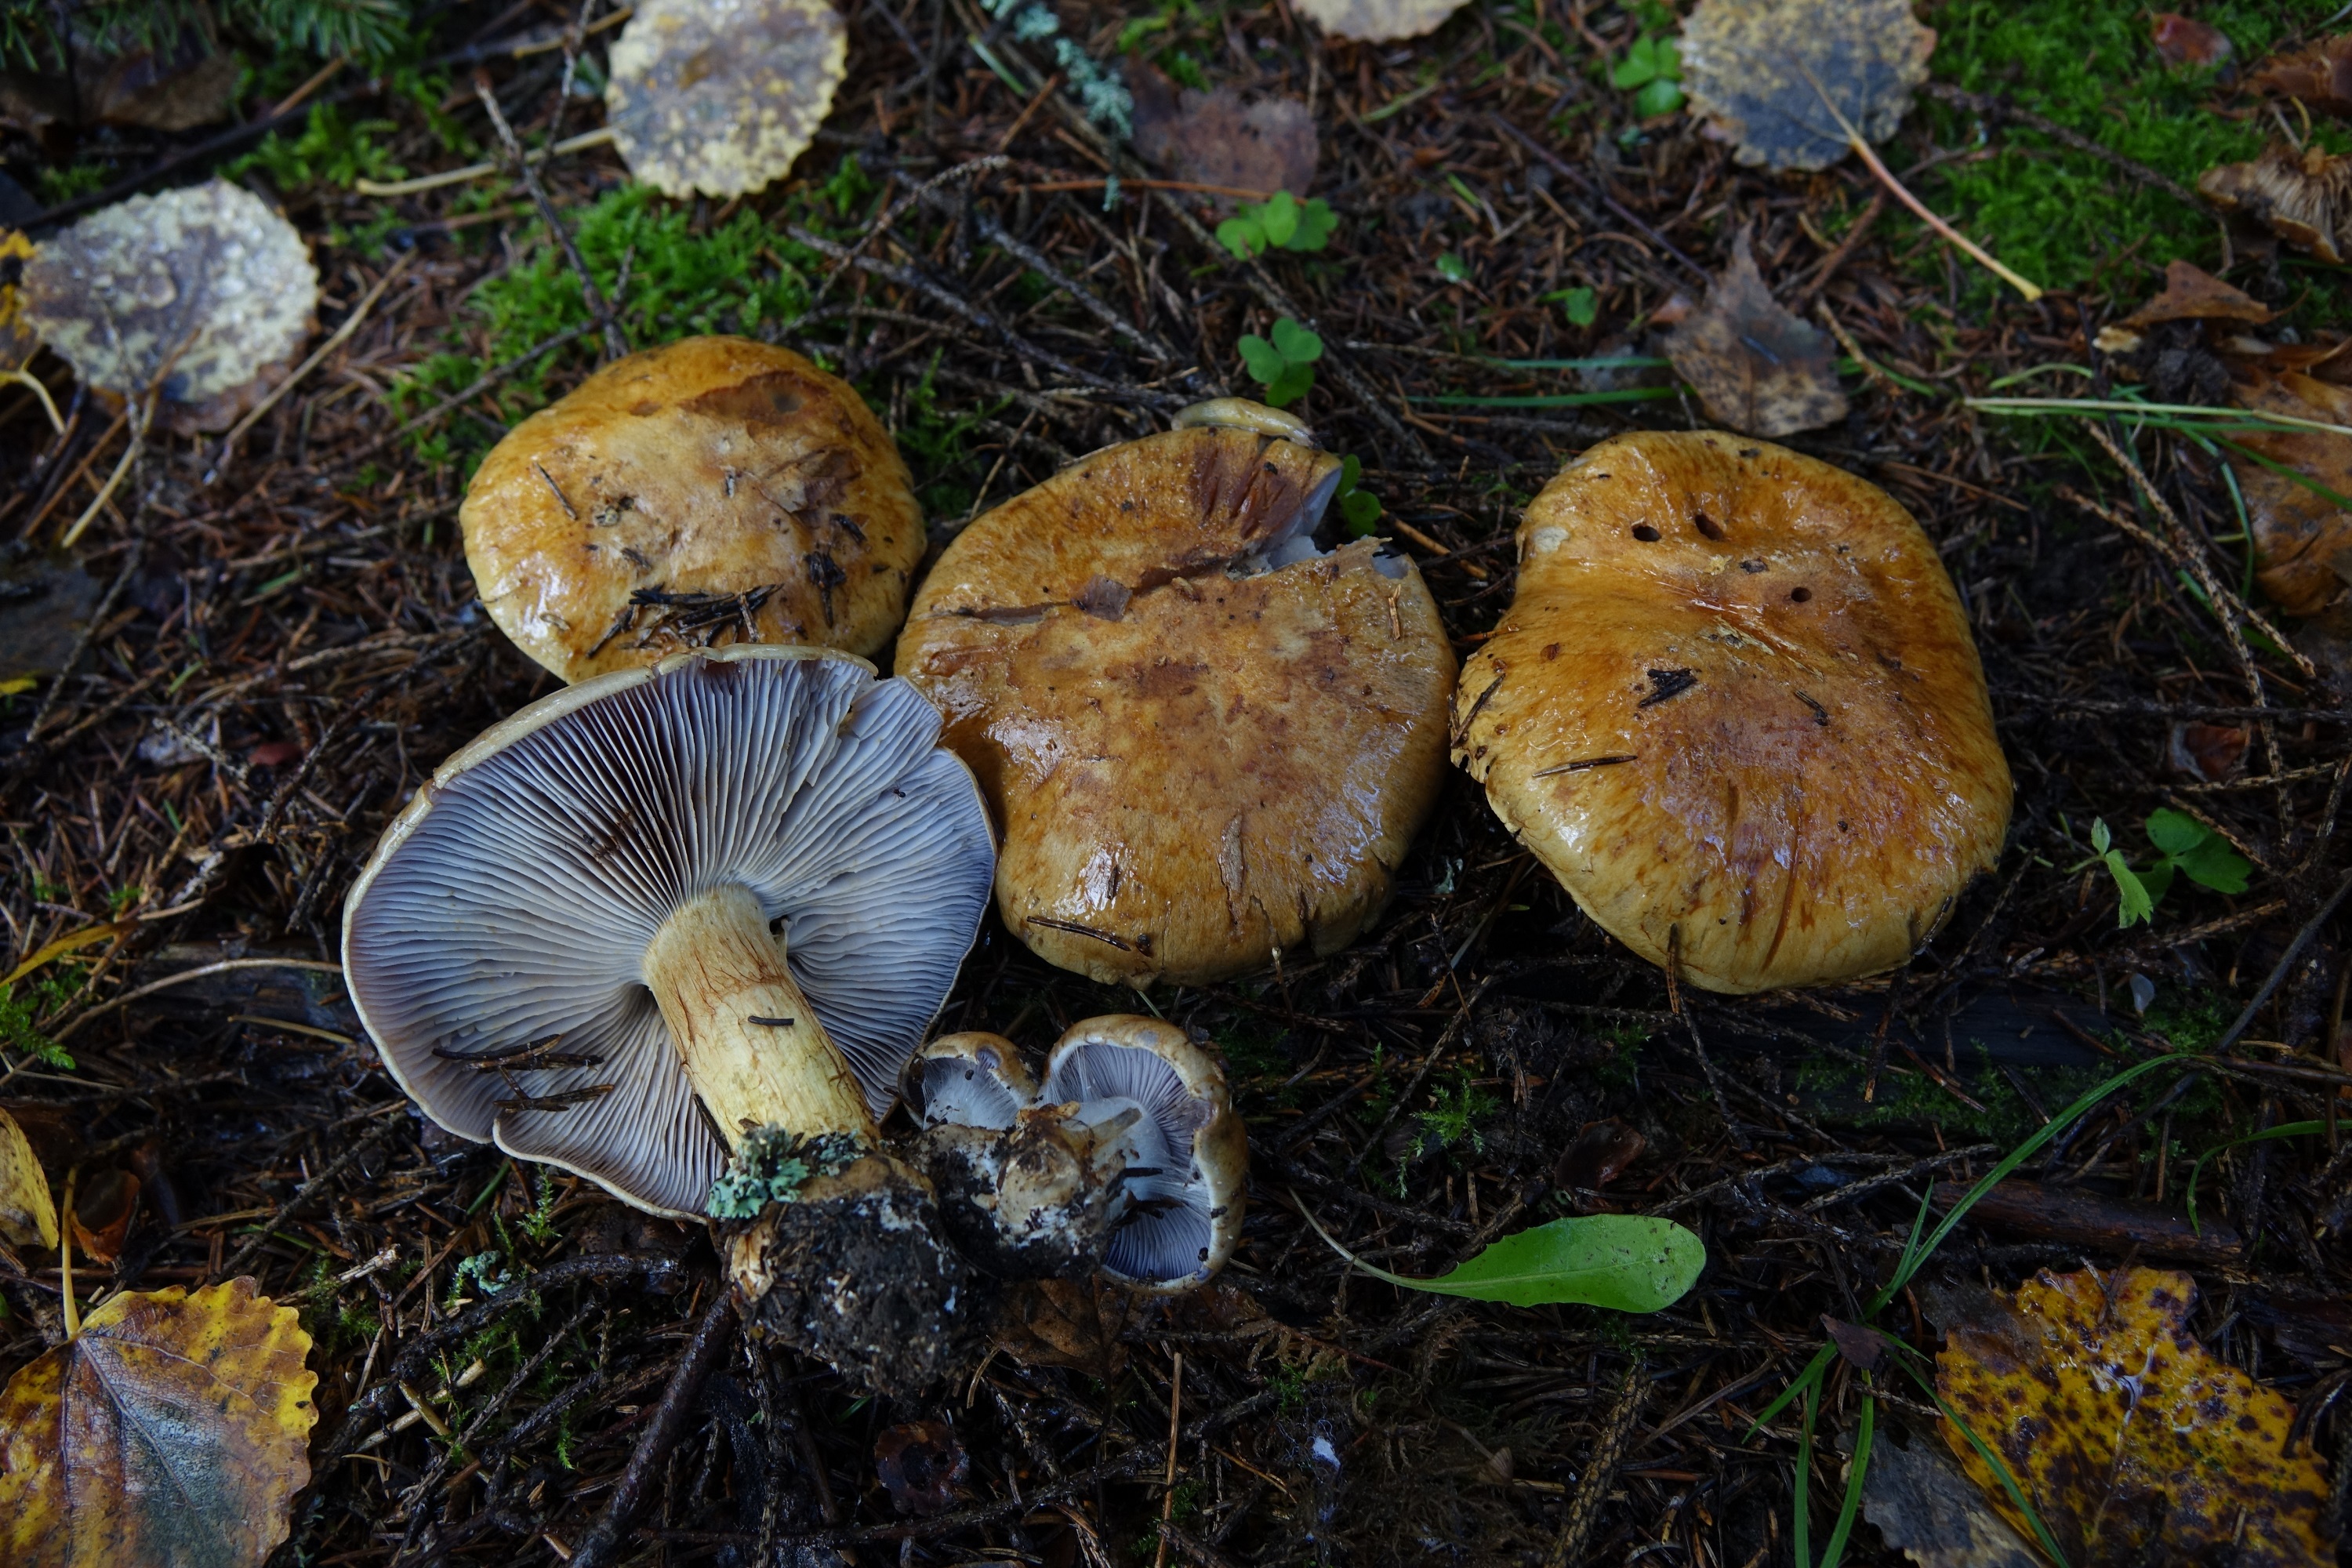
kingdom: Fungi
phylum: Basidiomycota
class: Agaricomycetes
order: Agaricales
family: Cortinariaceae
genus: Phlegmacium
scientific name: Phlegmacium glaucopus
